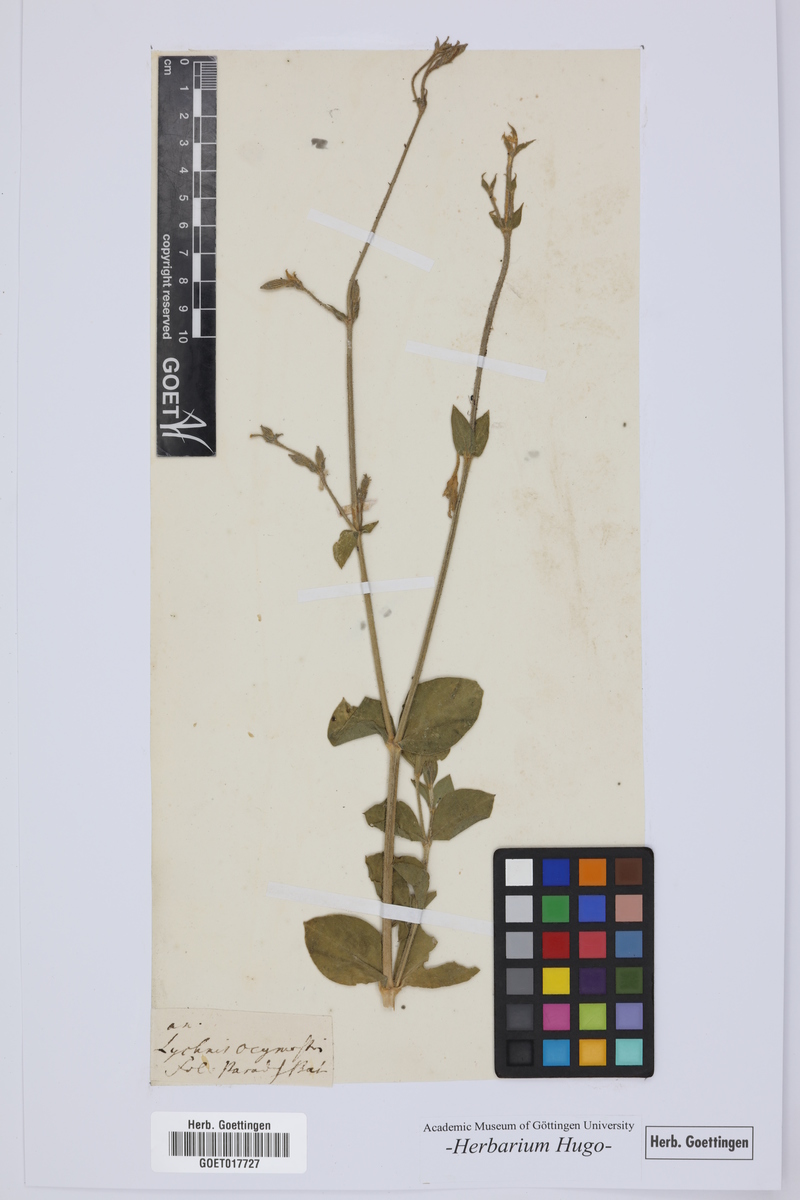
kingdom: Plantae
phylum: Tracheophyta
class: Magnoliopsida
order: Caryophyllales
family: Caryophyllaceae
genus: Silene
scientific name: Silene gigantea
